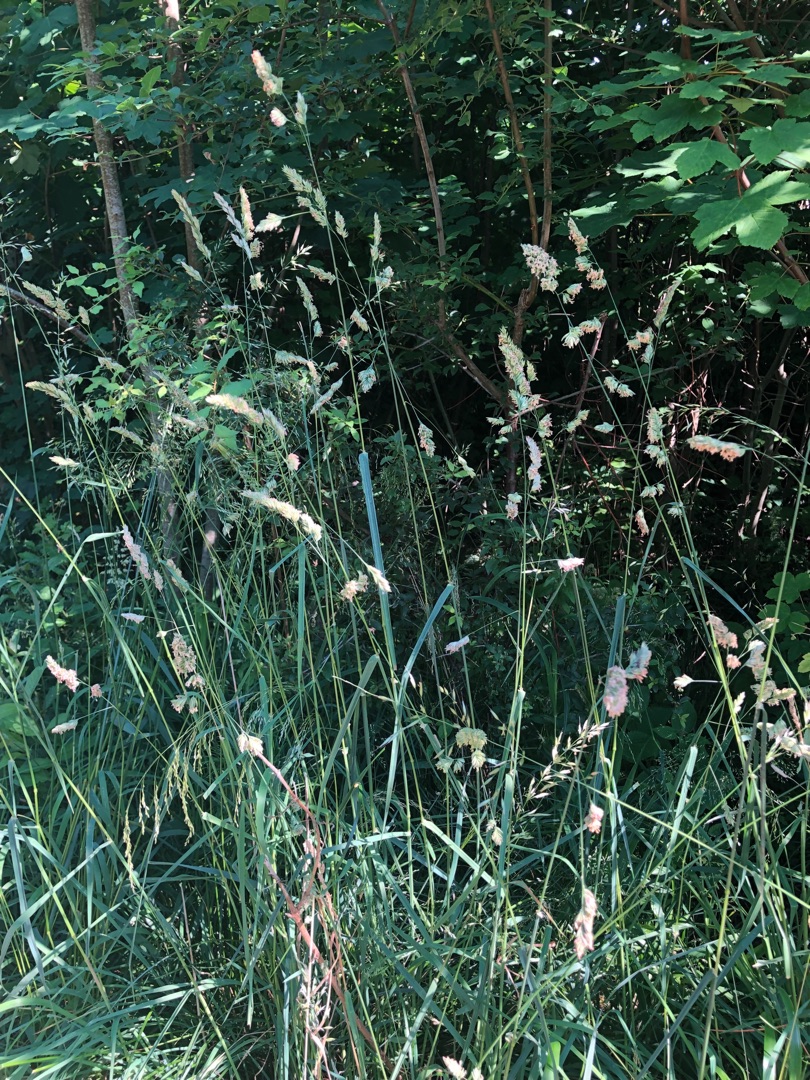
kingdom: Plantae
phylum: Tracheophyta
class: Liliopsida
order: Poales
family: Poaceae
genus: Dactylis
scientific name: Dactylis glomerata
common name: Almindelig hundegræs
